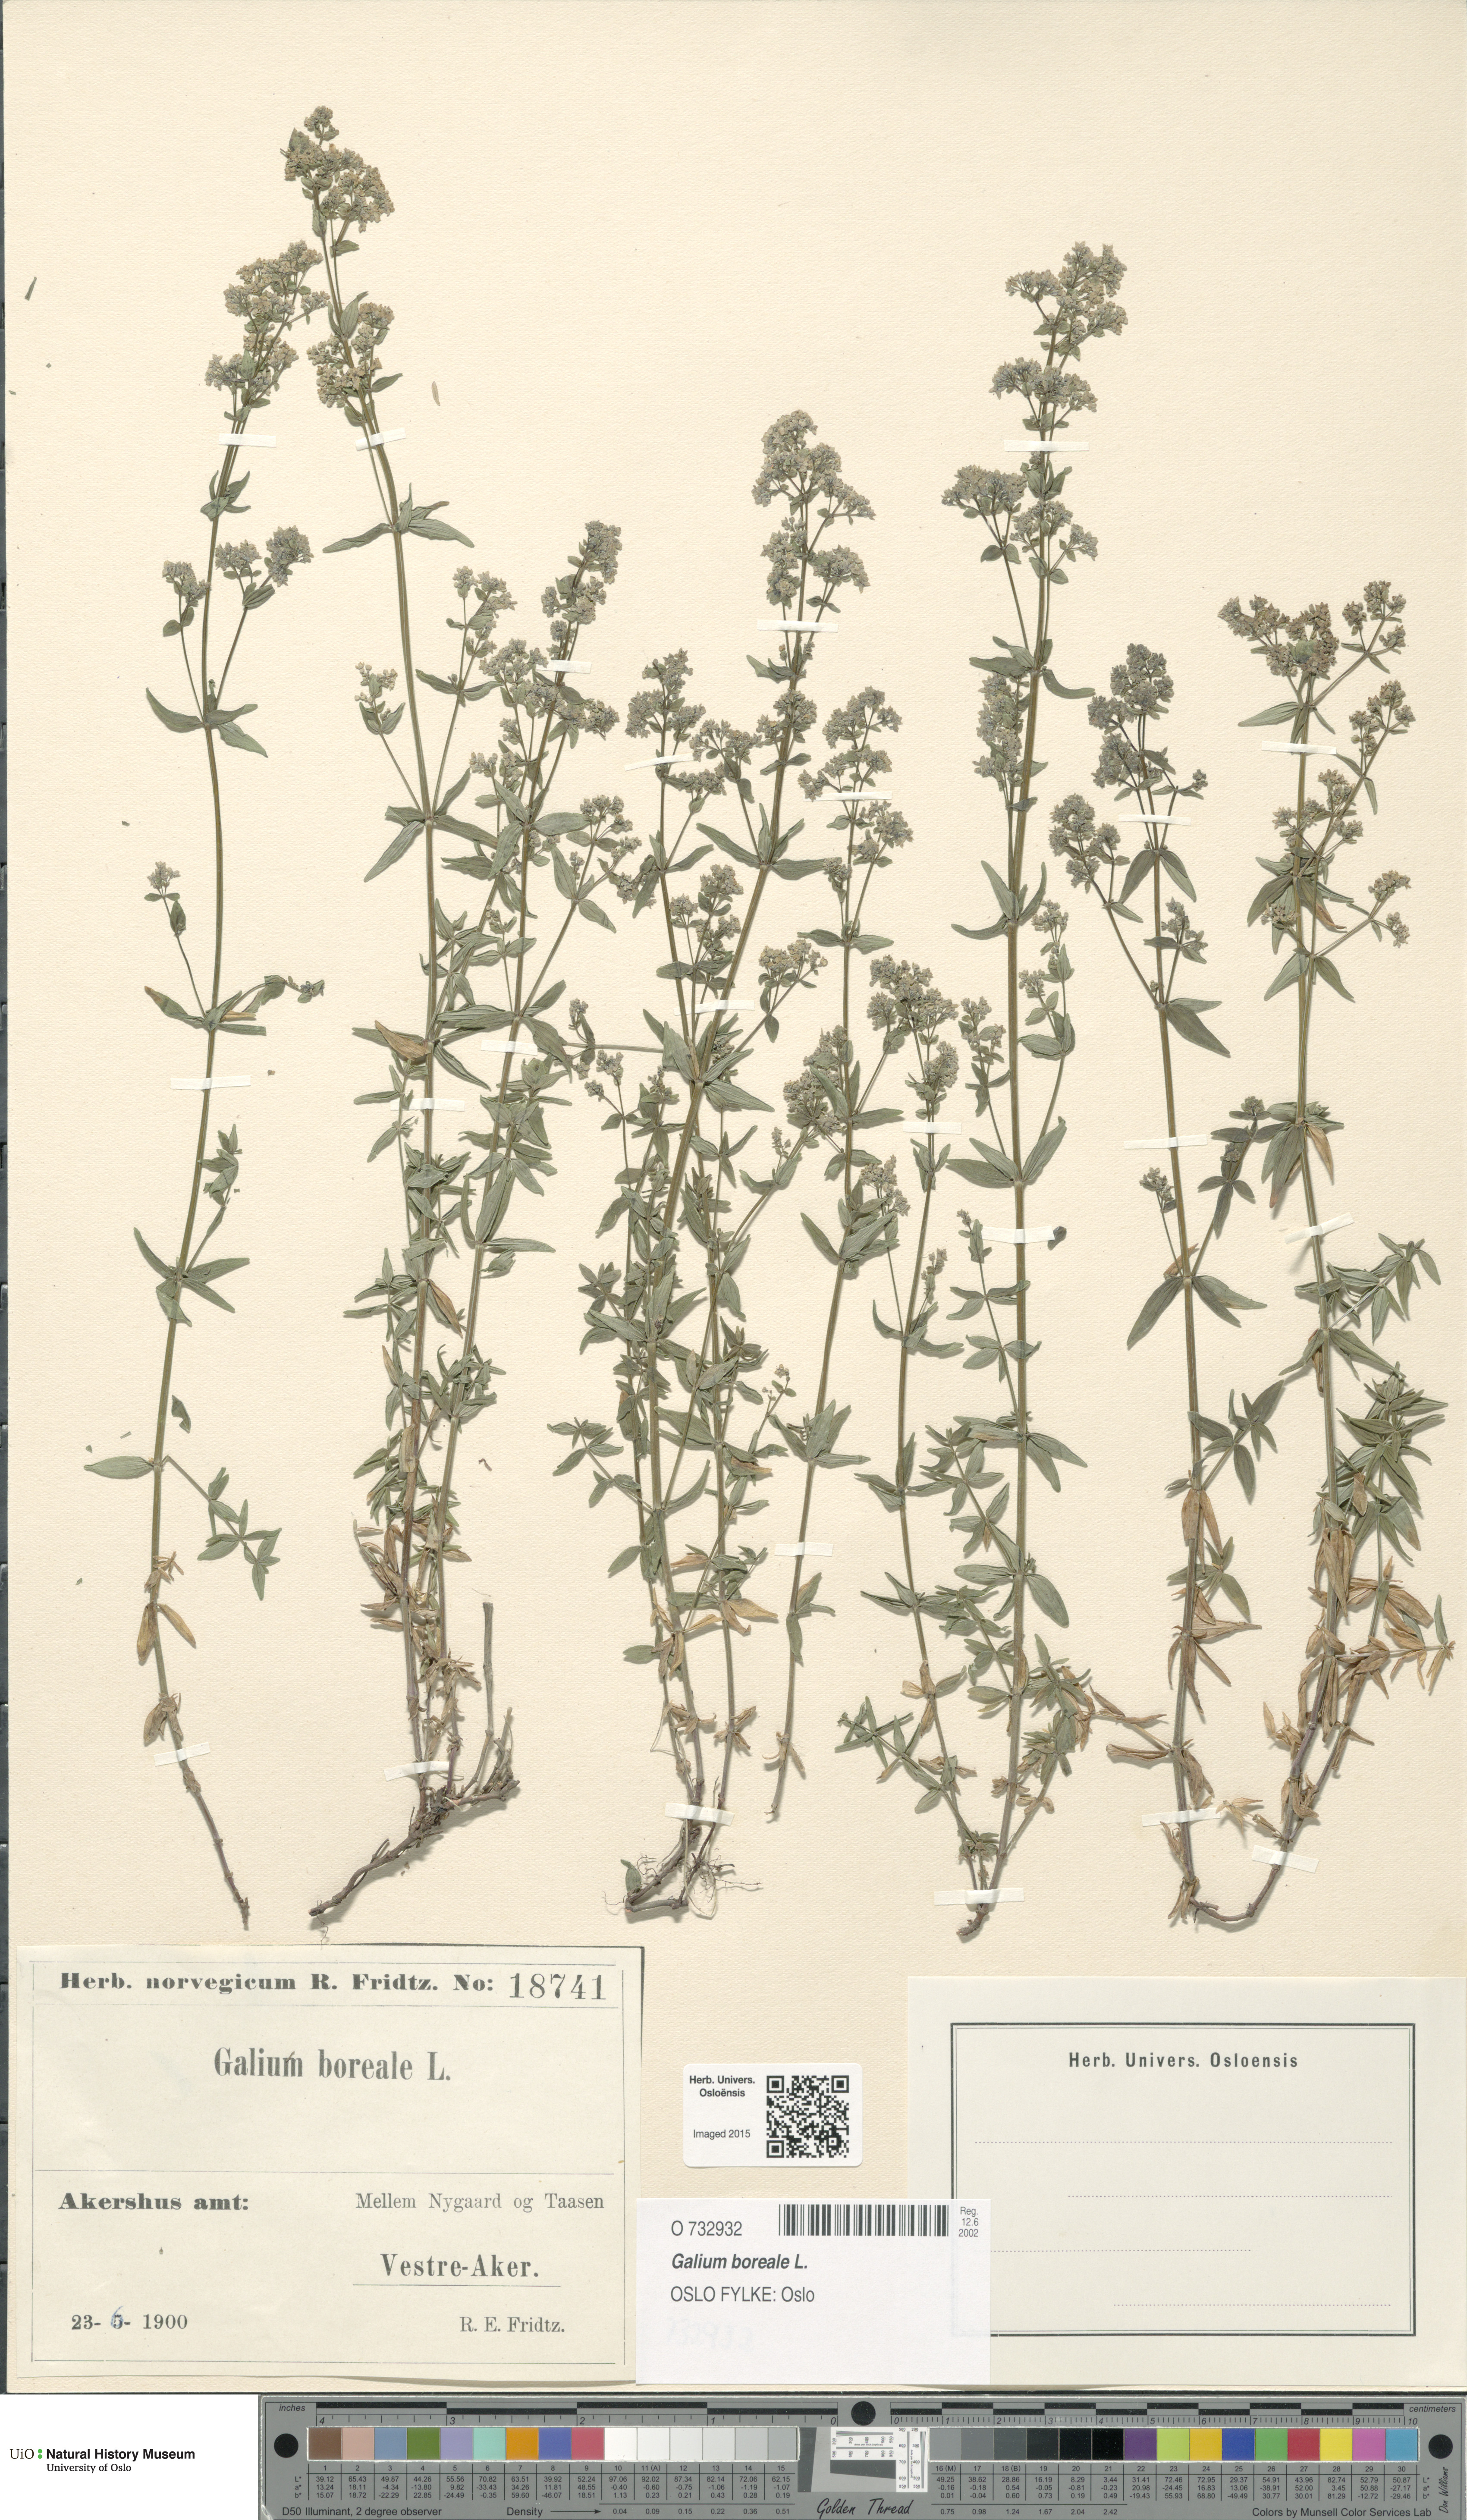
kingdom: Plantae
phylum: Tracheophyta
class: Magnoliopsida
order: Gentianales
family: Rubiaceae
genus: Galium
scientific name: Galium boreale
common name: Northern bedstraw
